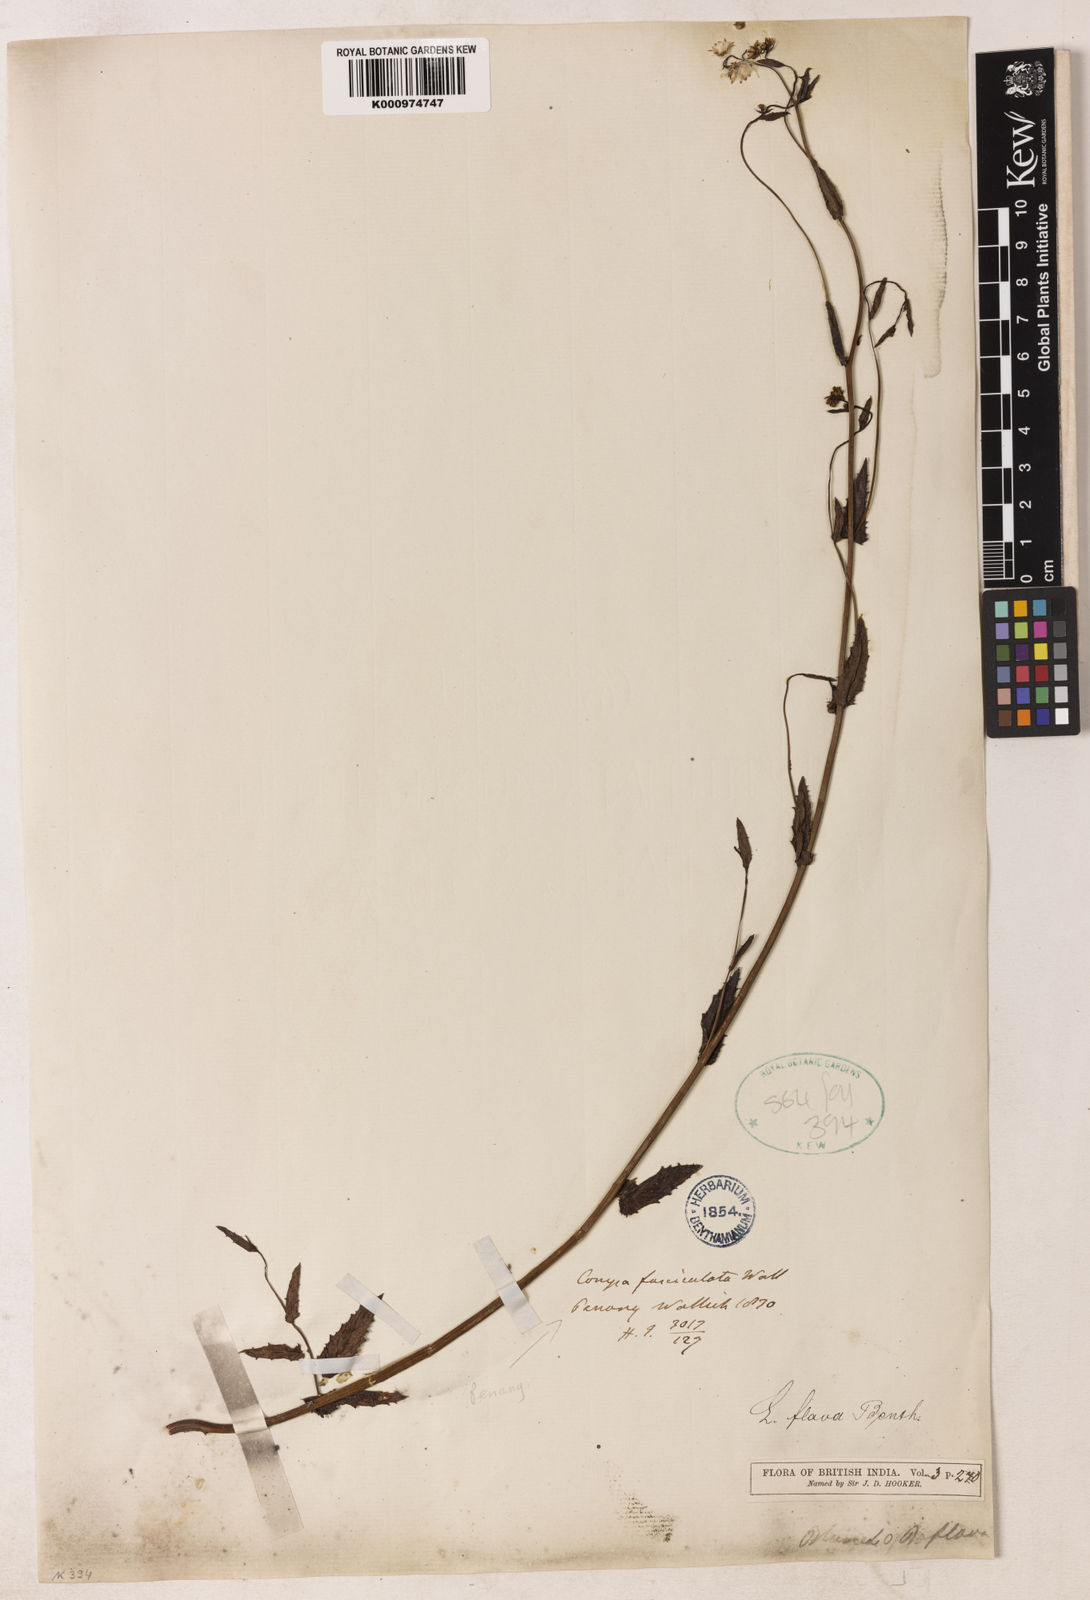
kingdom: Plantae
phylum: Tracheophyta
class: Magnoliopsida
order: Asterales
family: Asteraceae
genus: Blumeopsis
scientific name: Blumeopsis flava
